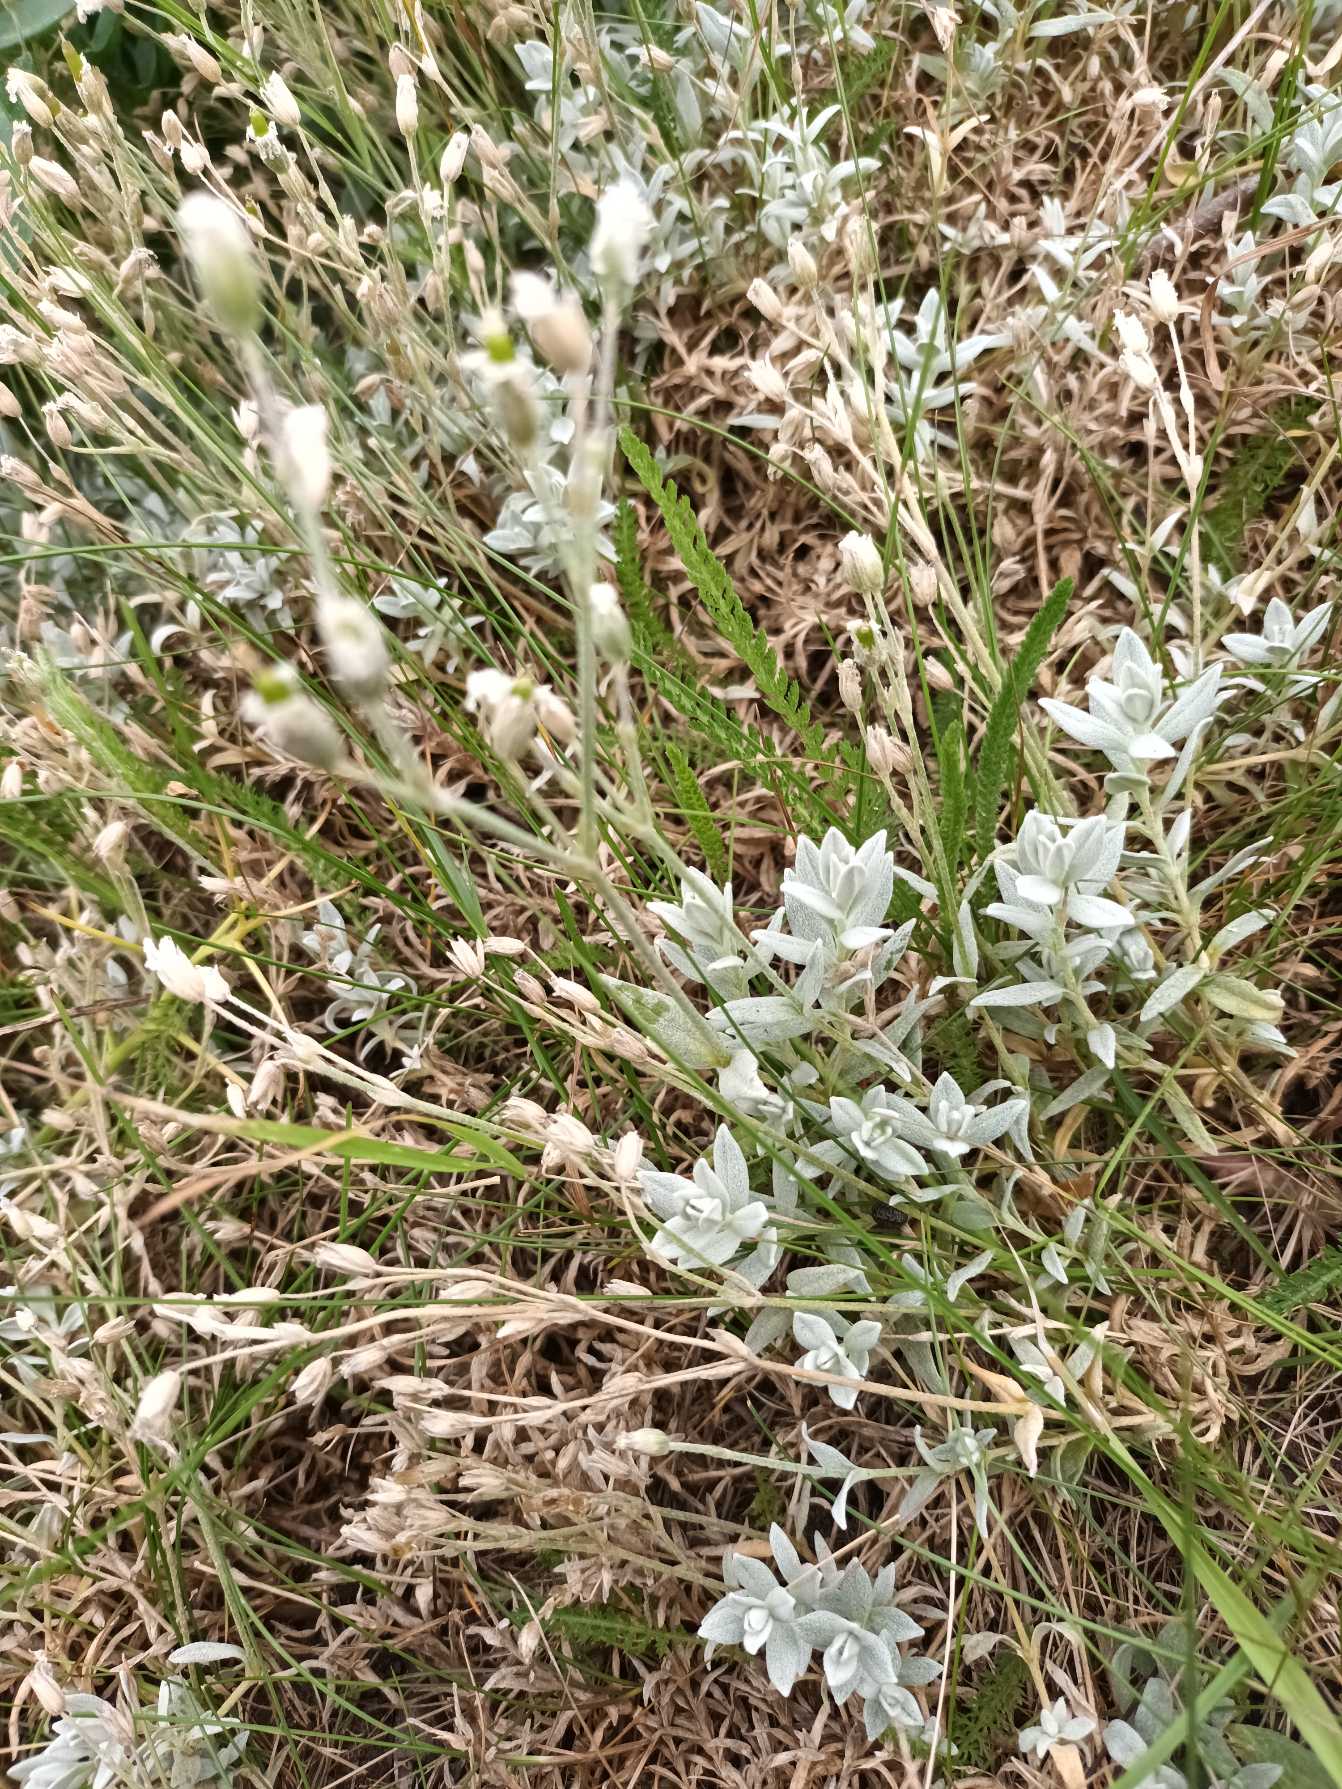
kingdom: Plantae
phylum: Tracheophyta
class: Magnoliopsida
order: Caryophyllales
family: Caryophyllaceae
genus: Cerastium
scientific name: Cerastium tomentosum
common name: Filtet hønsetarm
